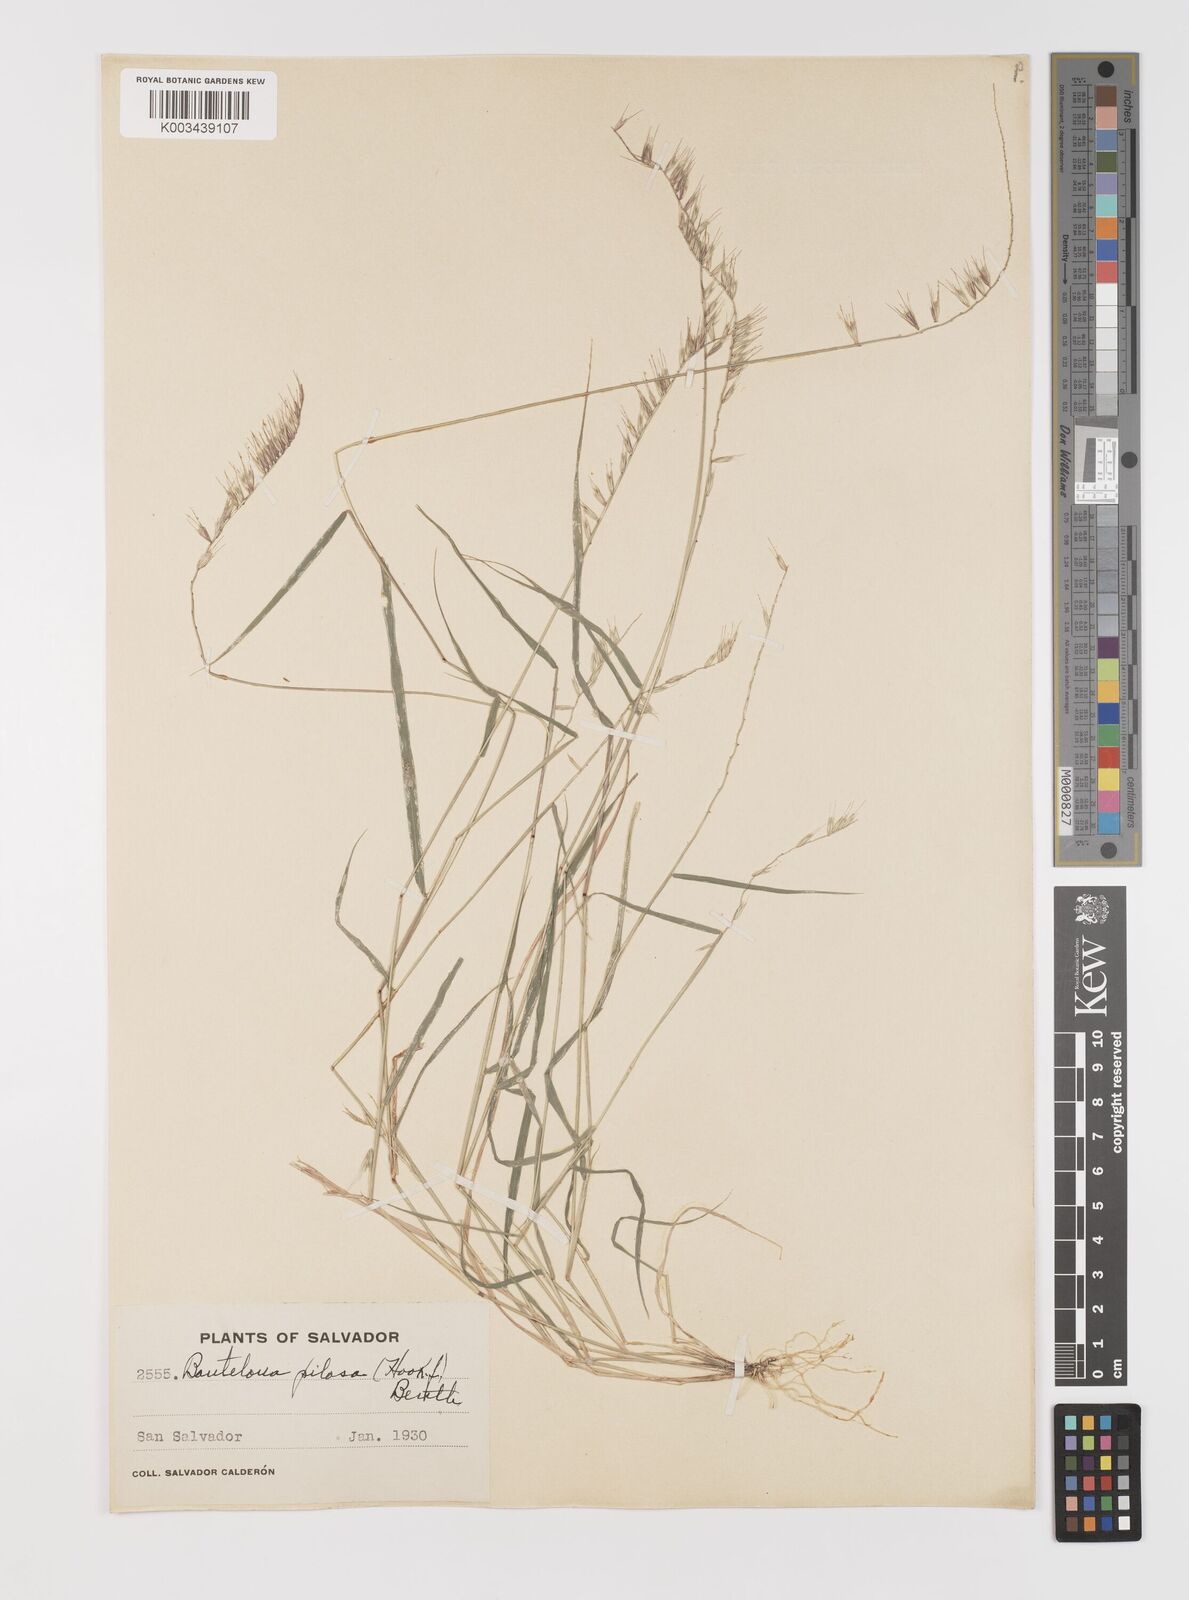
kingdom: Plantae
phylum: Tracheophyta
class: Liliopsida
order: Poales
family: Poaceae
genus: Bouteloua
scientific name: Bouteloua disticha
